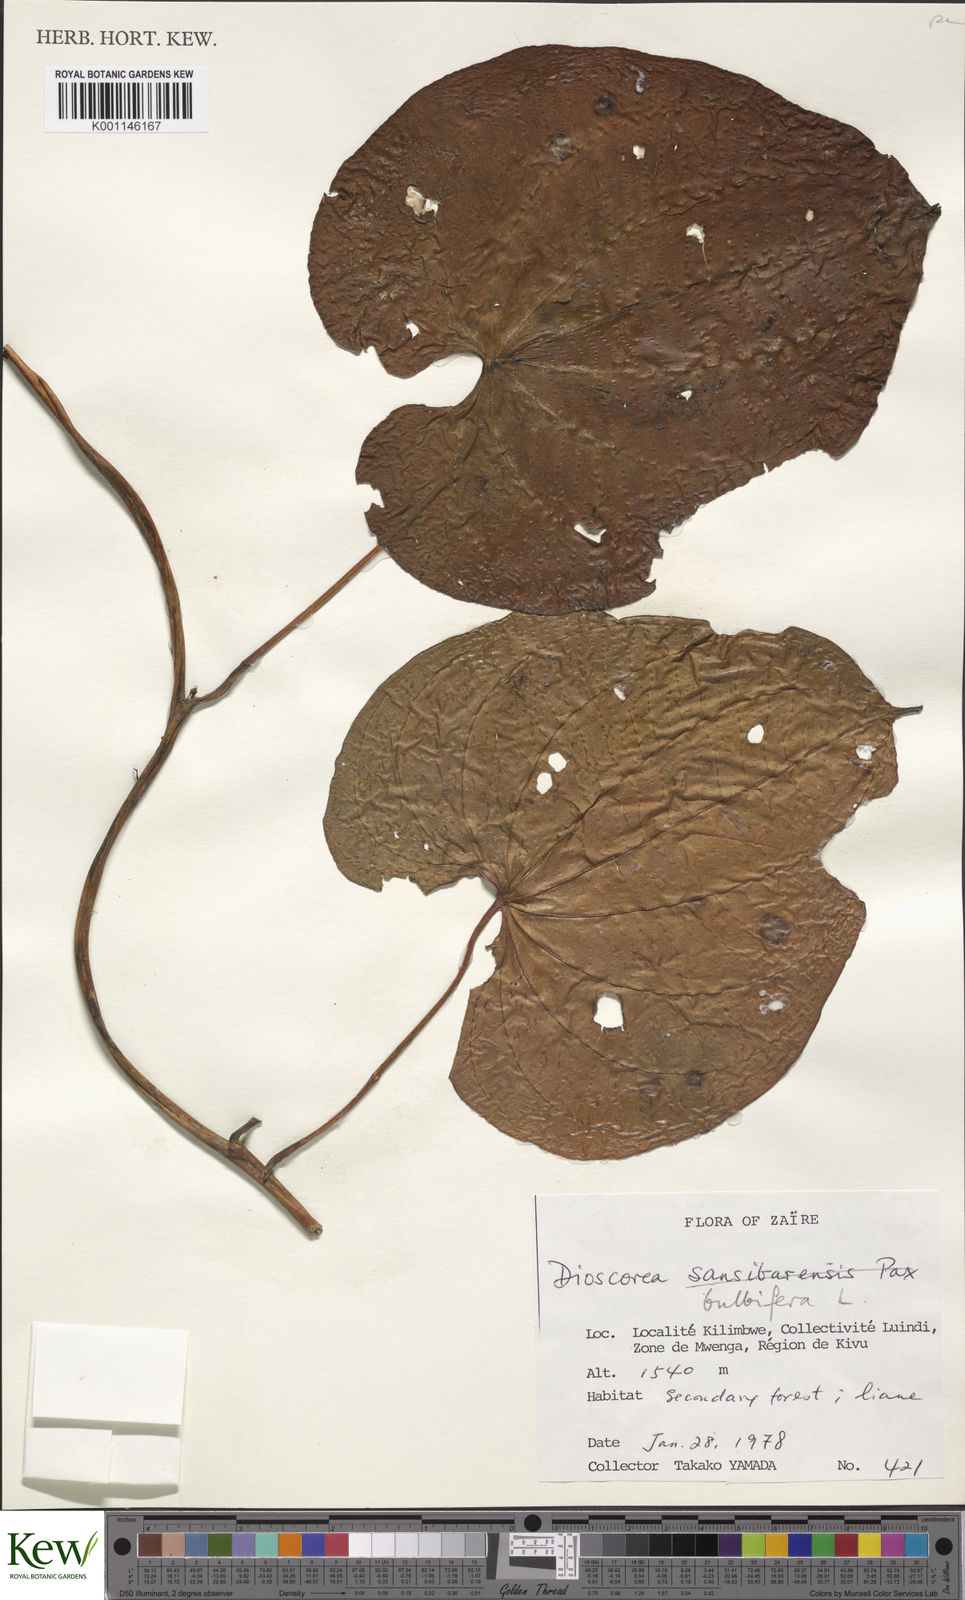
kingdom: Plantae
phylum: Tracheophyta
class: Liliopsida
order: Dioscoreales
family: Dioscoreaceae
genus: Dioscorea
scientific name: Dioscorea bulbifera
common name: Air yam
